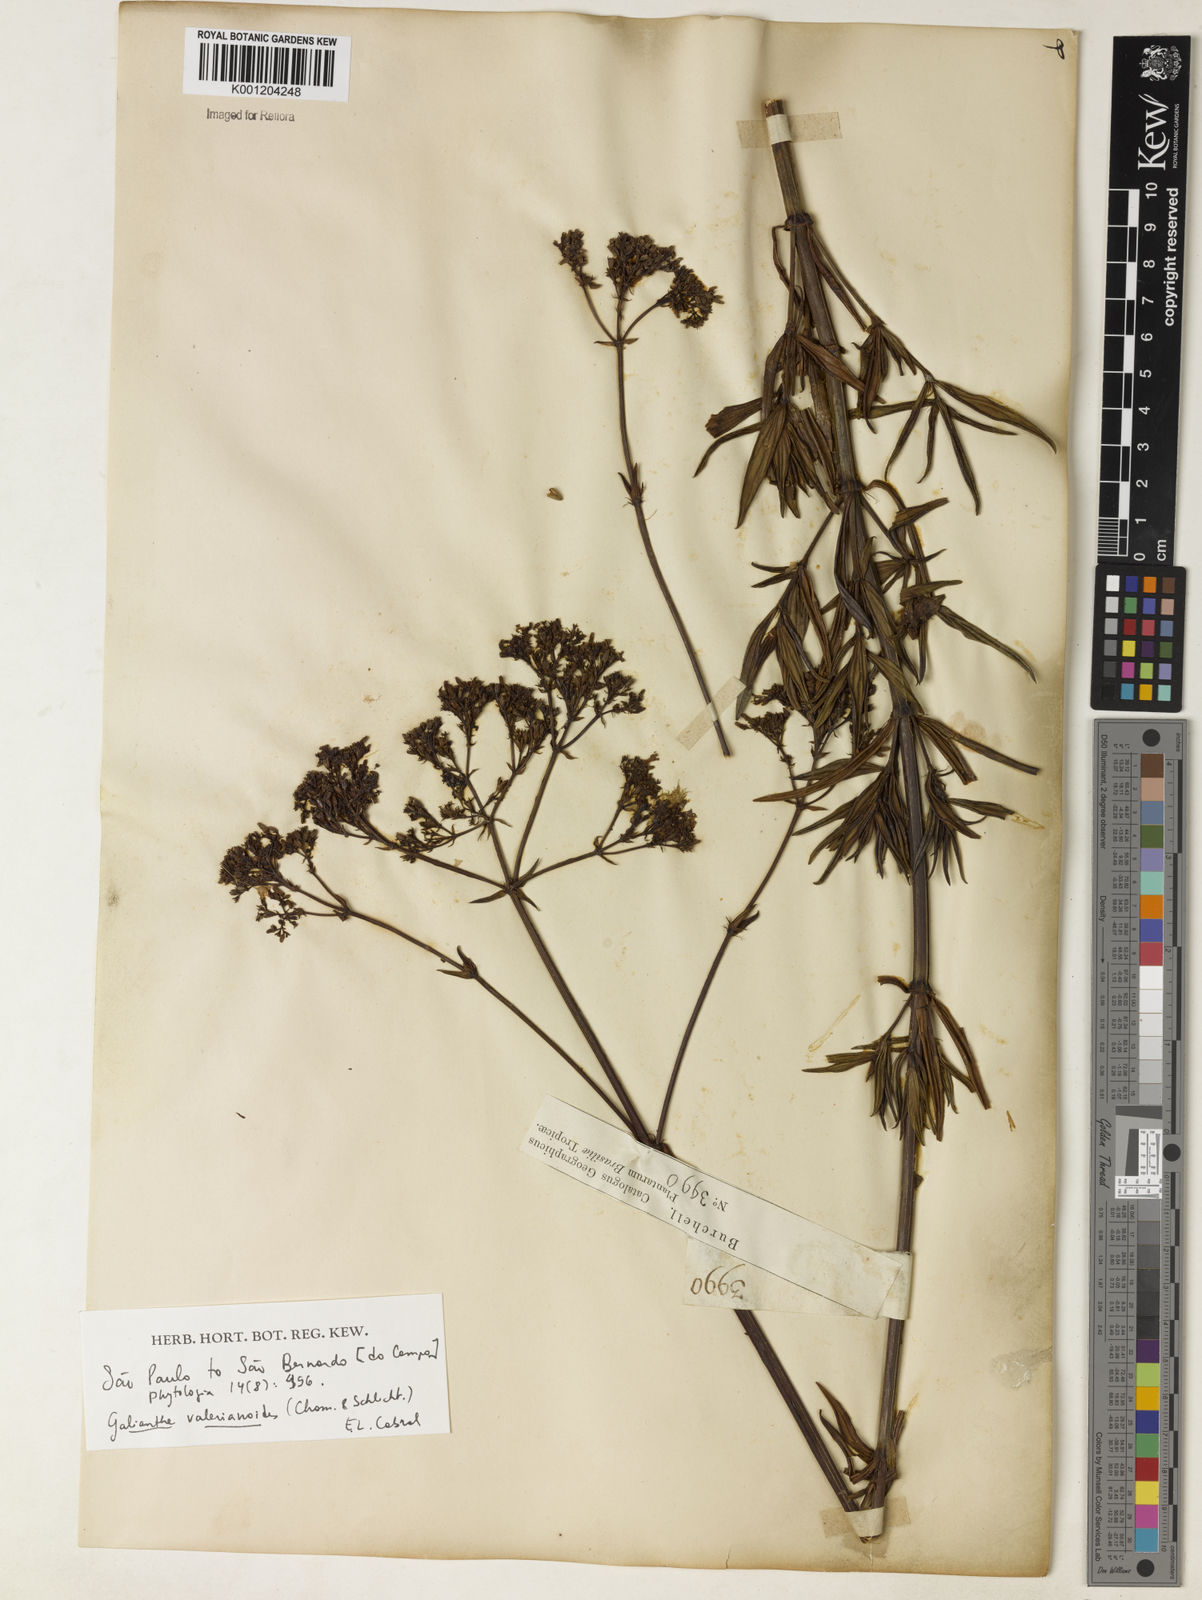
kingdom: Plantae
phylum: Tracheophyta
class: Magnoliopsida
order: Gentianales
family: Rubiaceae
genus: Galianthe
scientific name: Galianthe valerianoides
